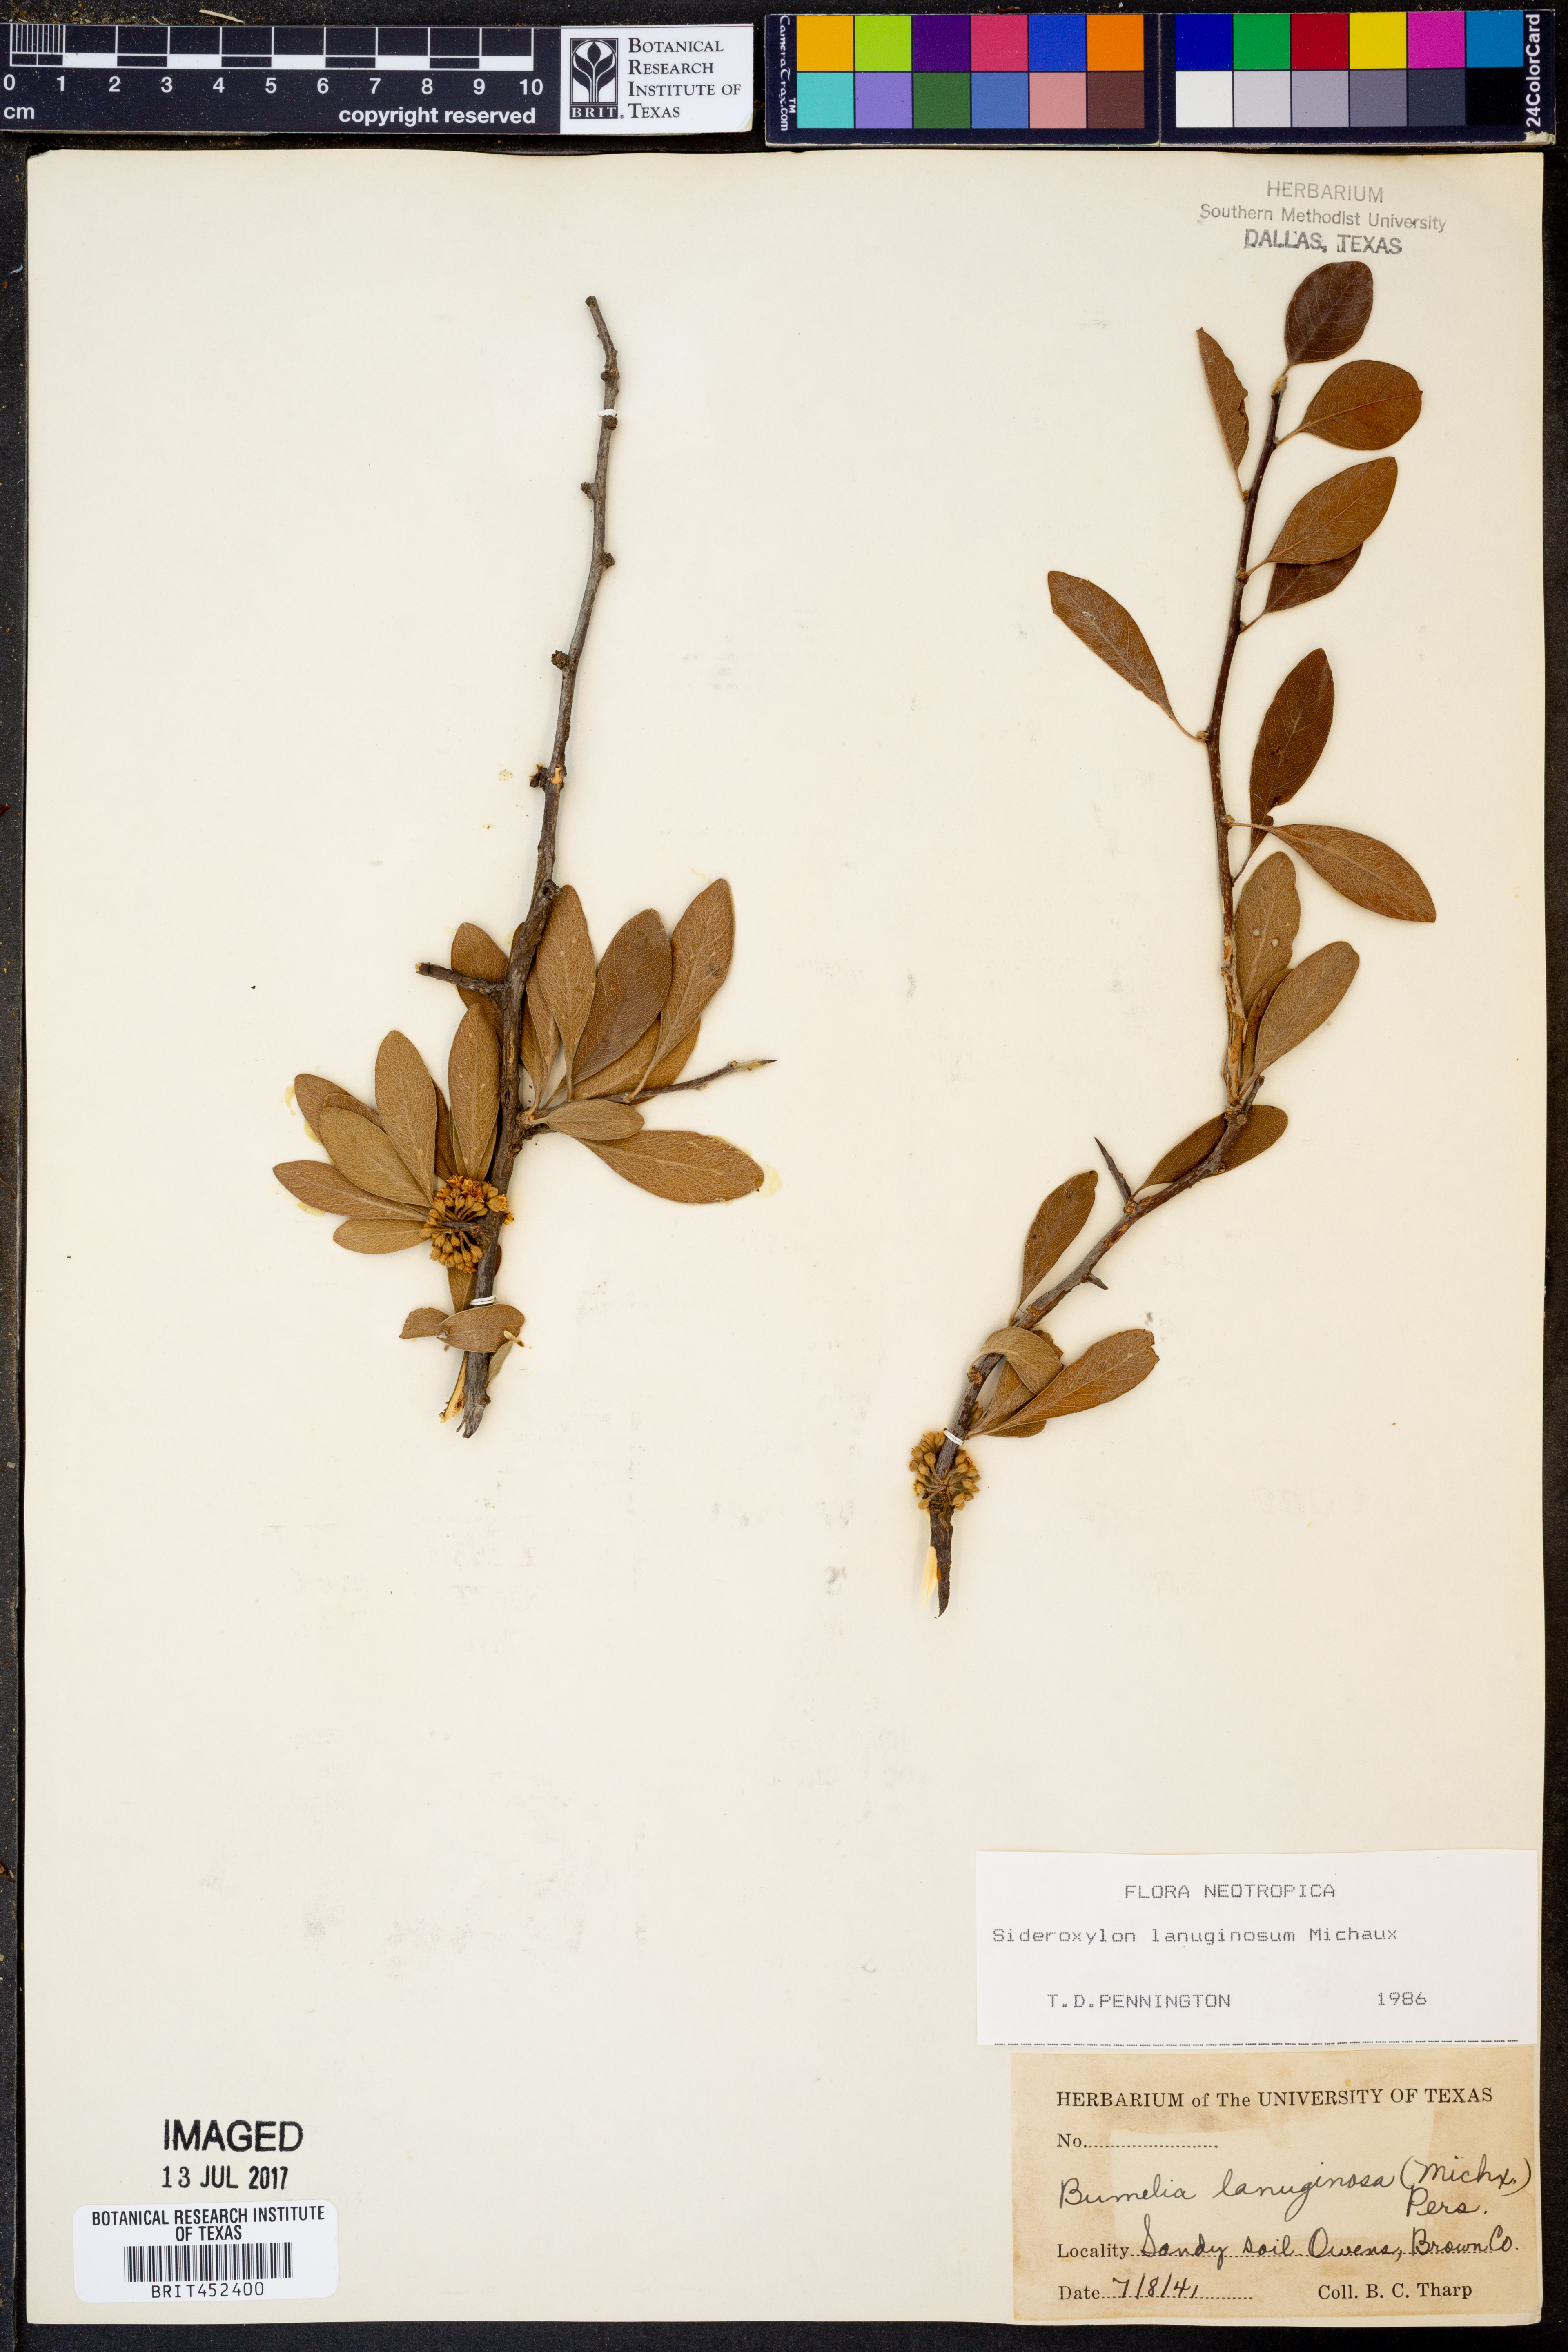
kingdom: Plantae
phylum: Tracheophyta
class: Magnoliopsida
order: Ericales
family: Sapotaceae
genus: Sideroxylon
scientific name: Sideroxylon lanuginosum
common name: Chittamwood
